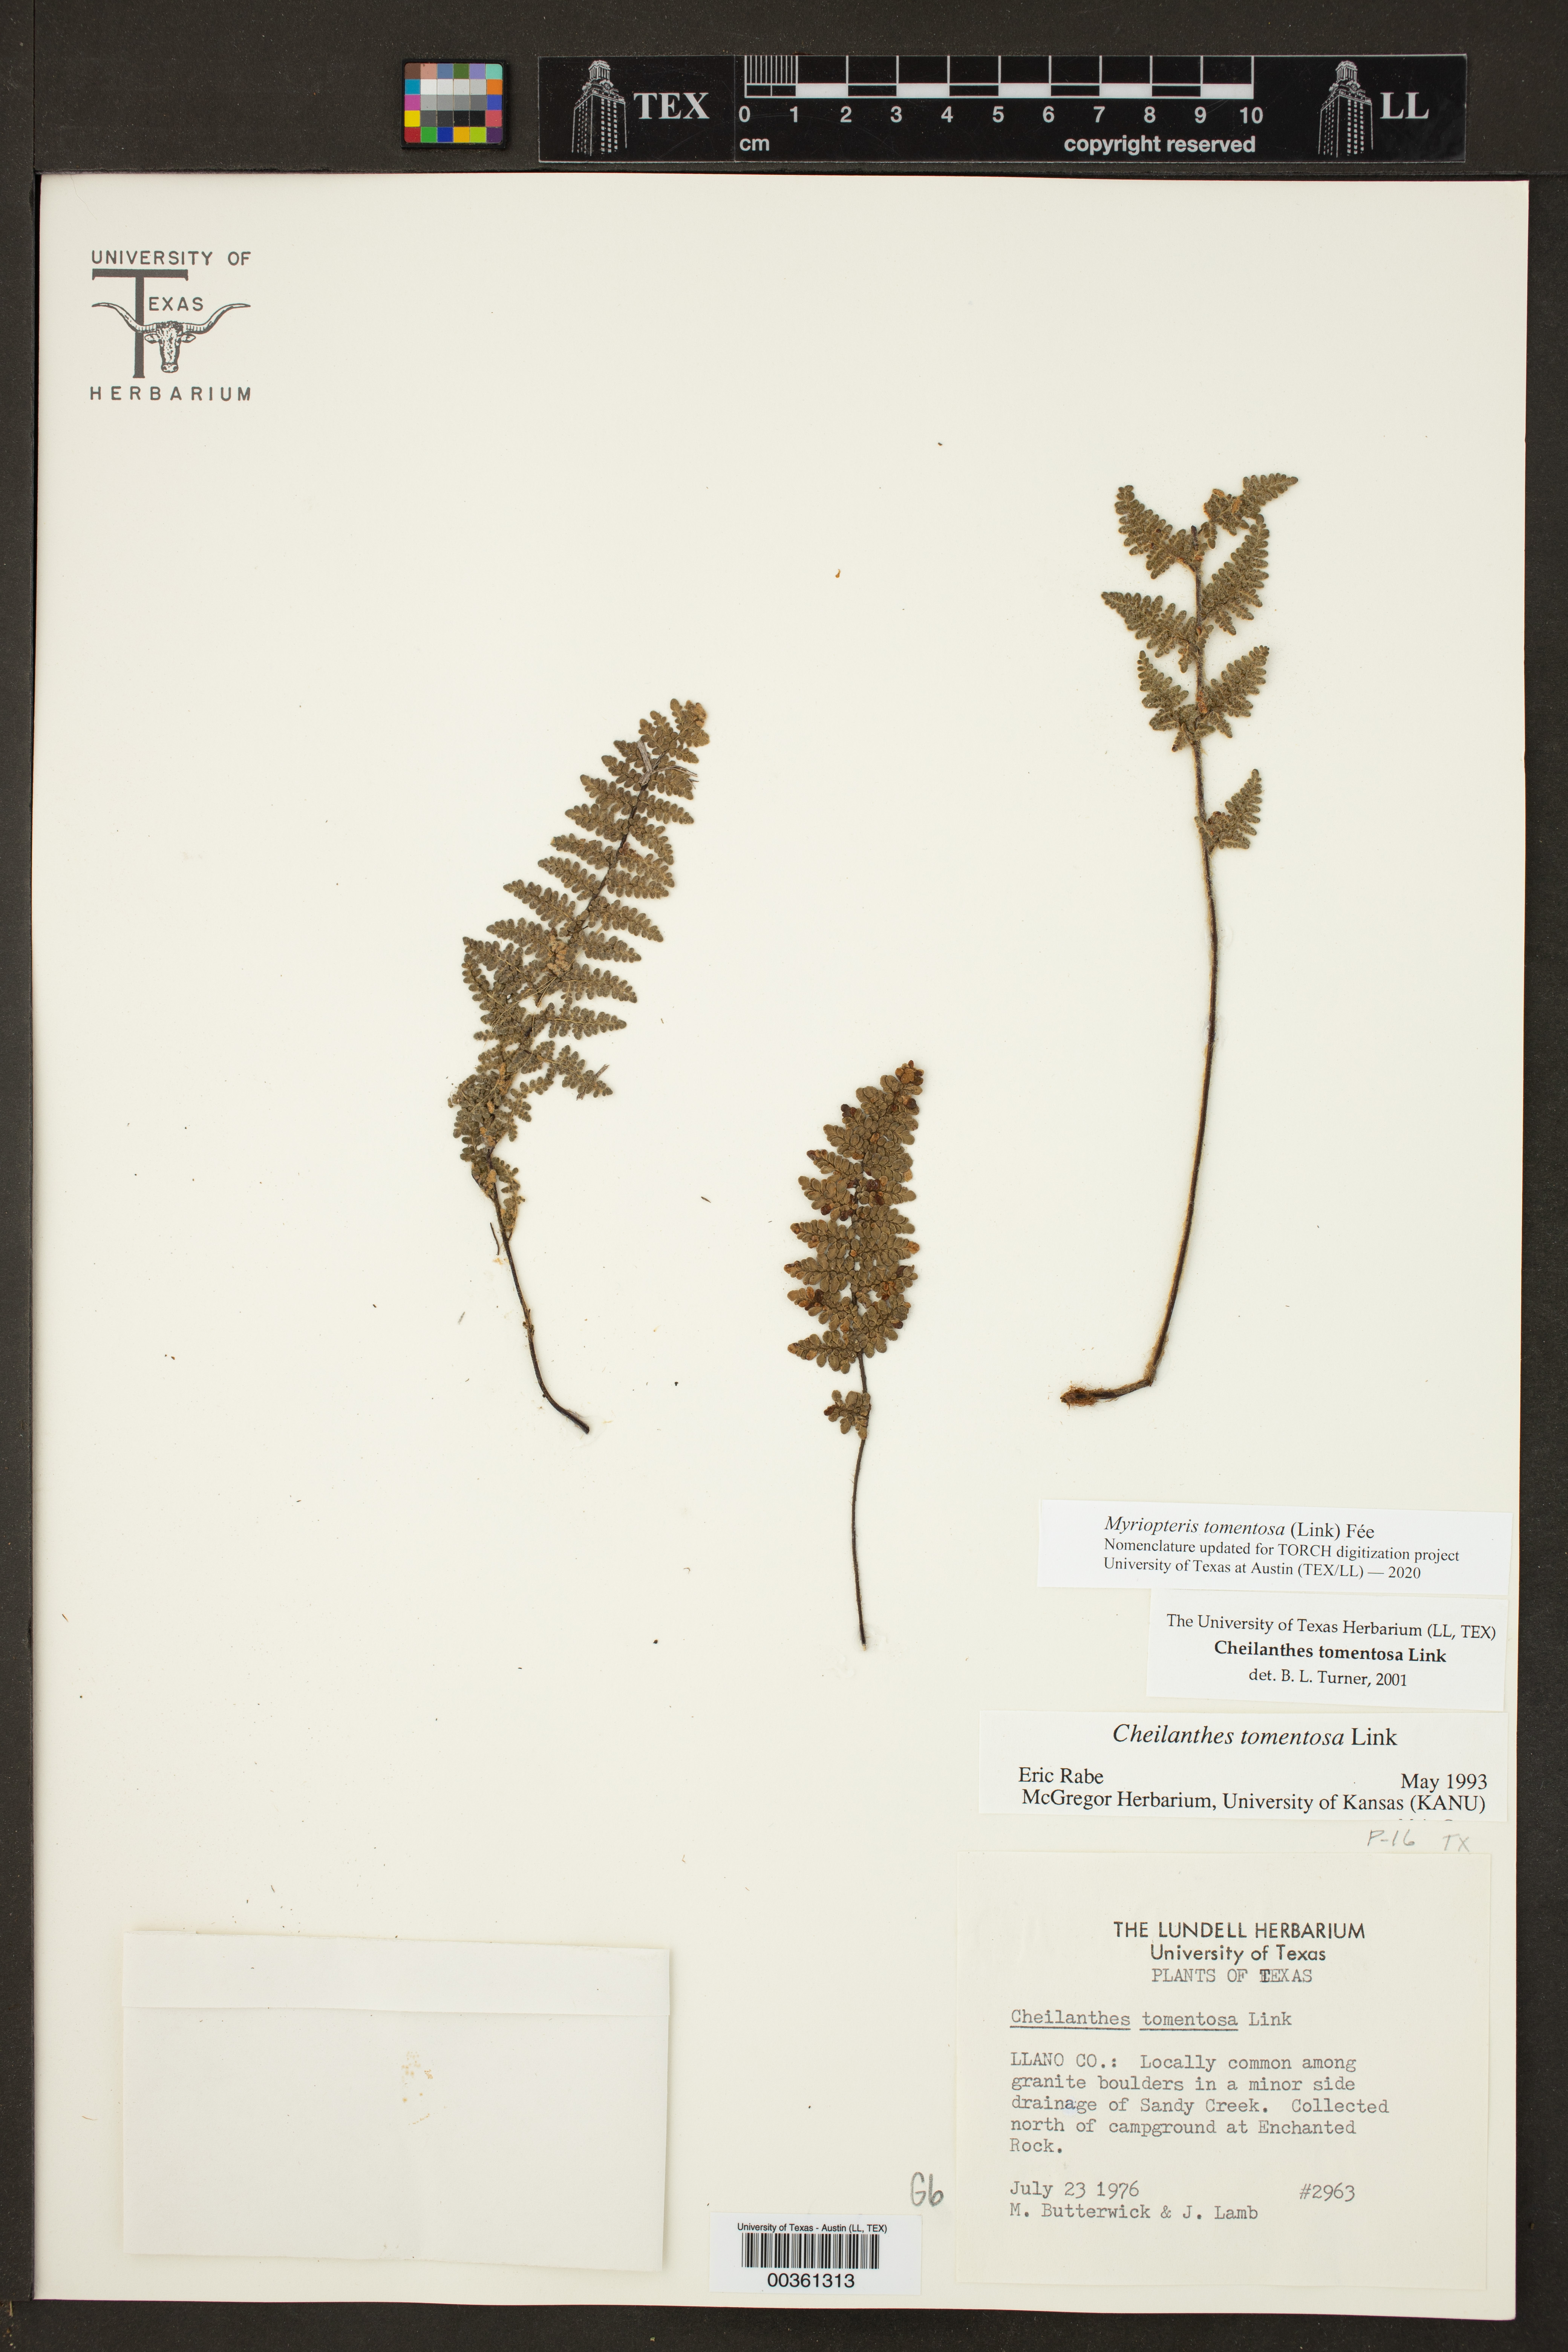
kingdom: Plantae
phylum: Tracheophyta
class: Polypodiopsida
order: Polypodiales
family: Pteridaceae
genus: Myriopteris
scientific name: Myriopteris tomentosa
